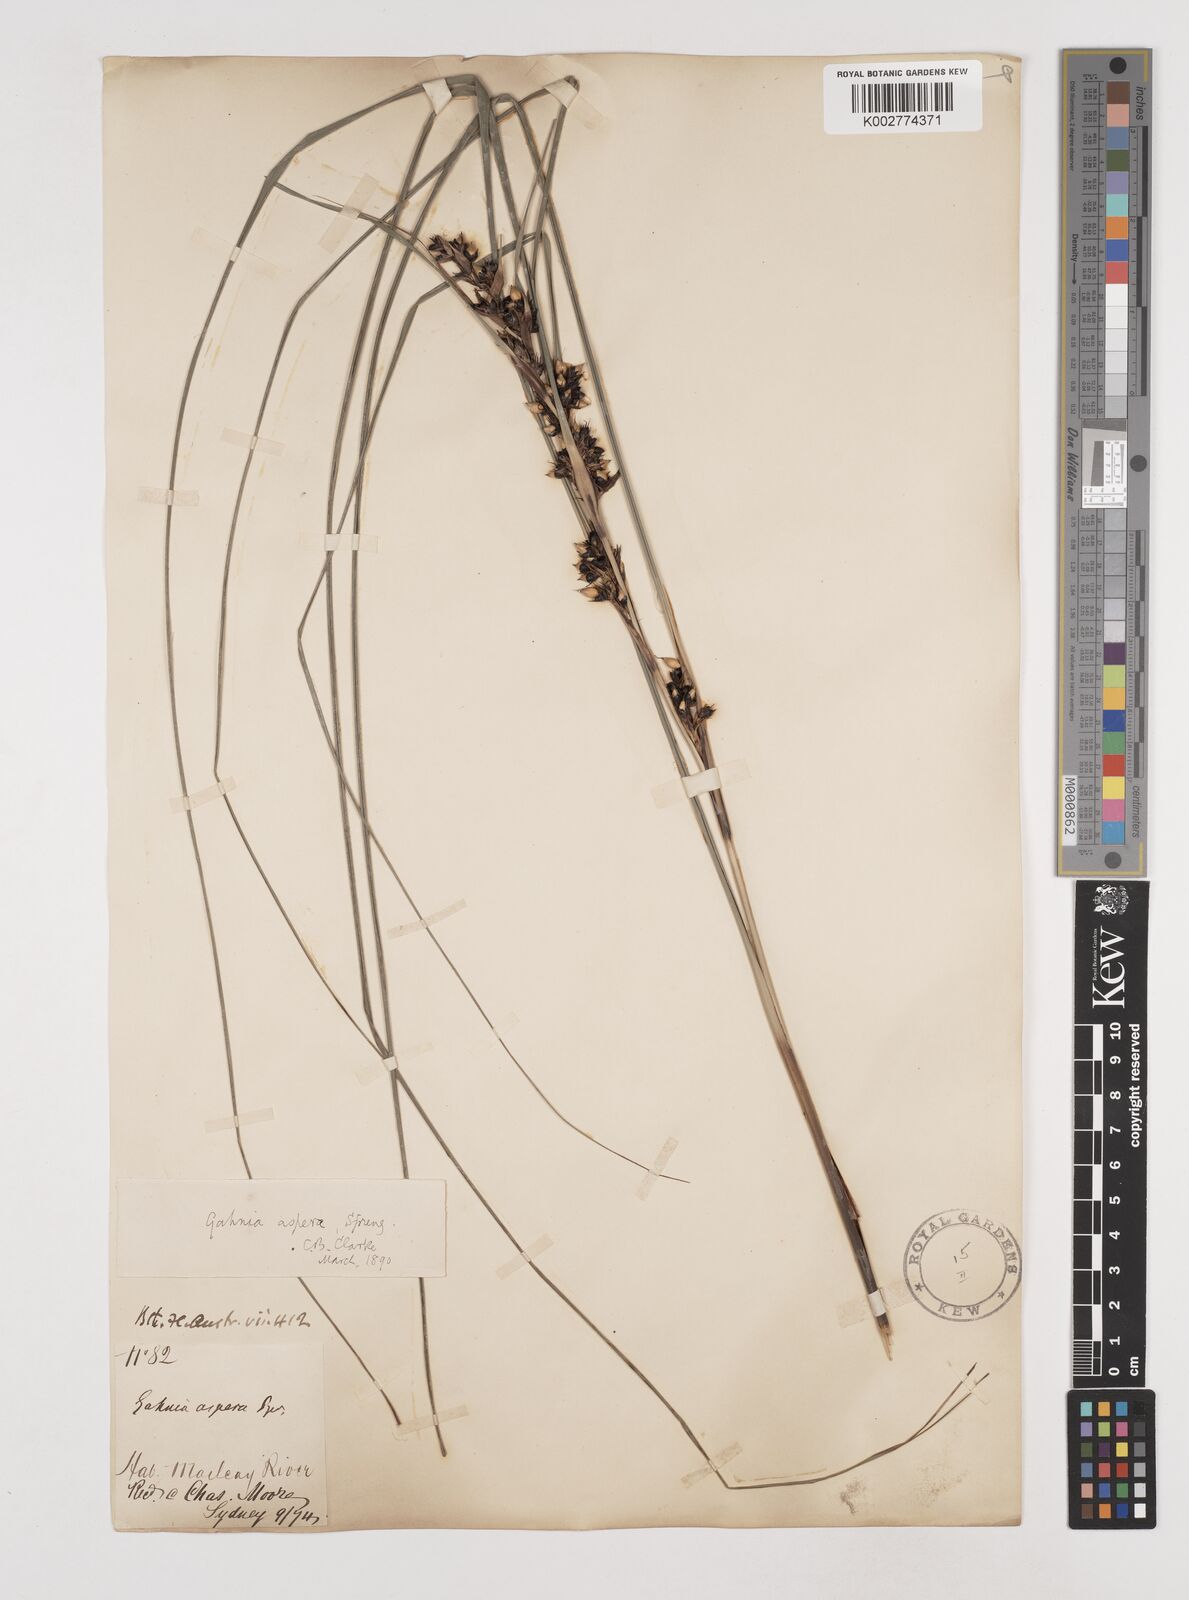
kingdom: Plantae
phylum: Tracheophyta
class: Liliopsida
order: Poales
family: Cyperaceae
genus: Gahnia
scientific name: Gahnia aspera
